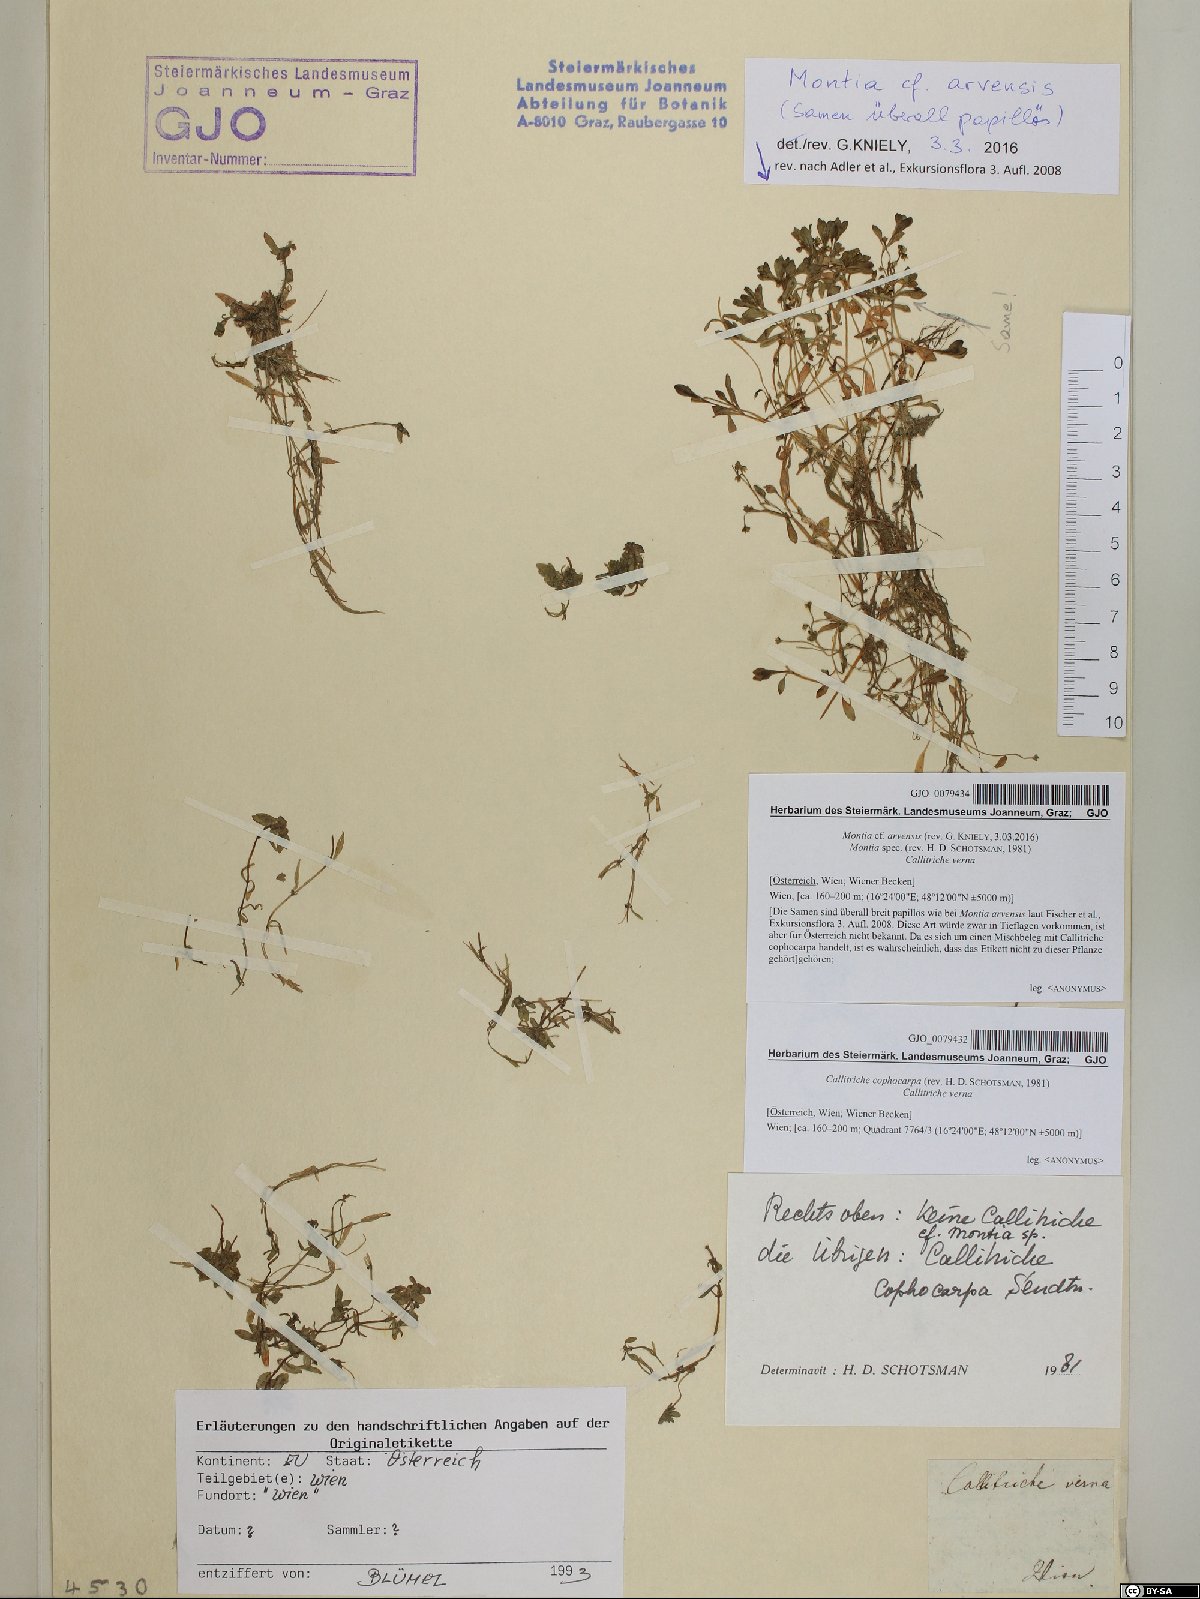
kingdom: Plantae
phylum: Tracheophyta
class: Magnoliopsida
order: Caryophyllales
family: Montiaceae
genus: Montia
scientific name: Montia arvensis
